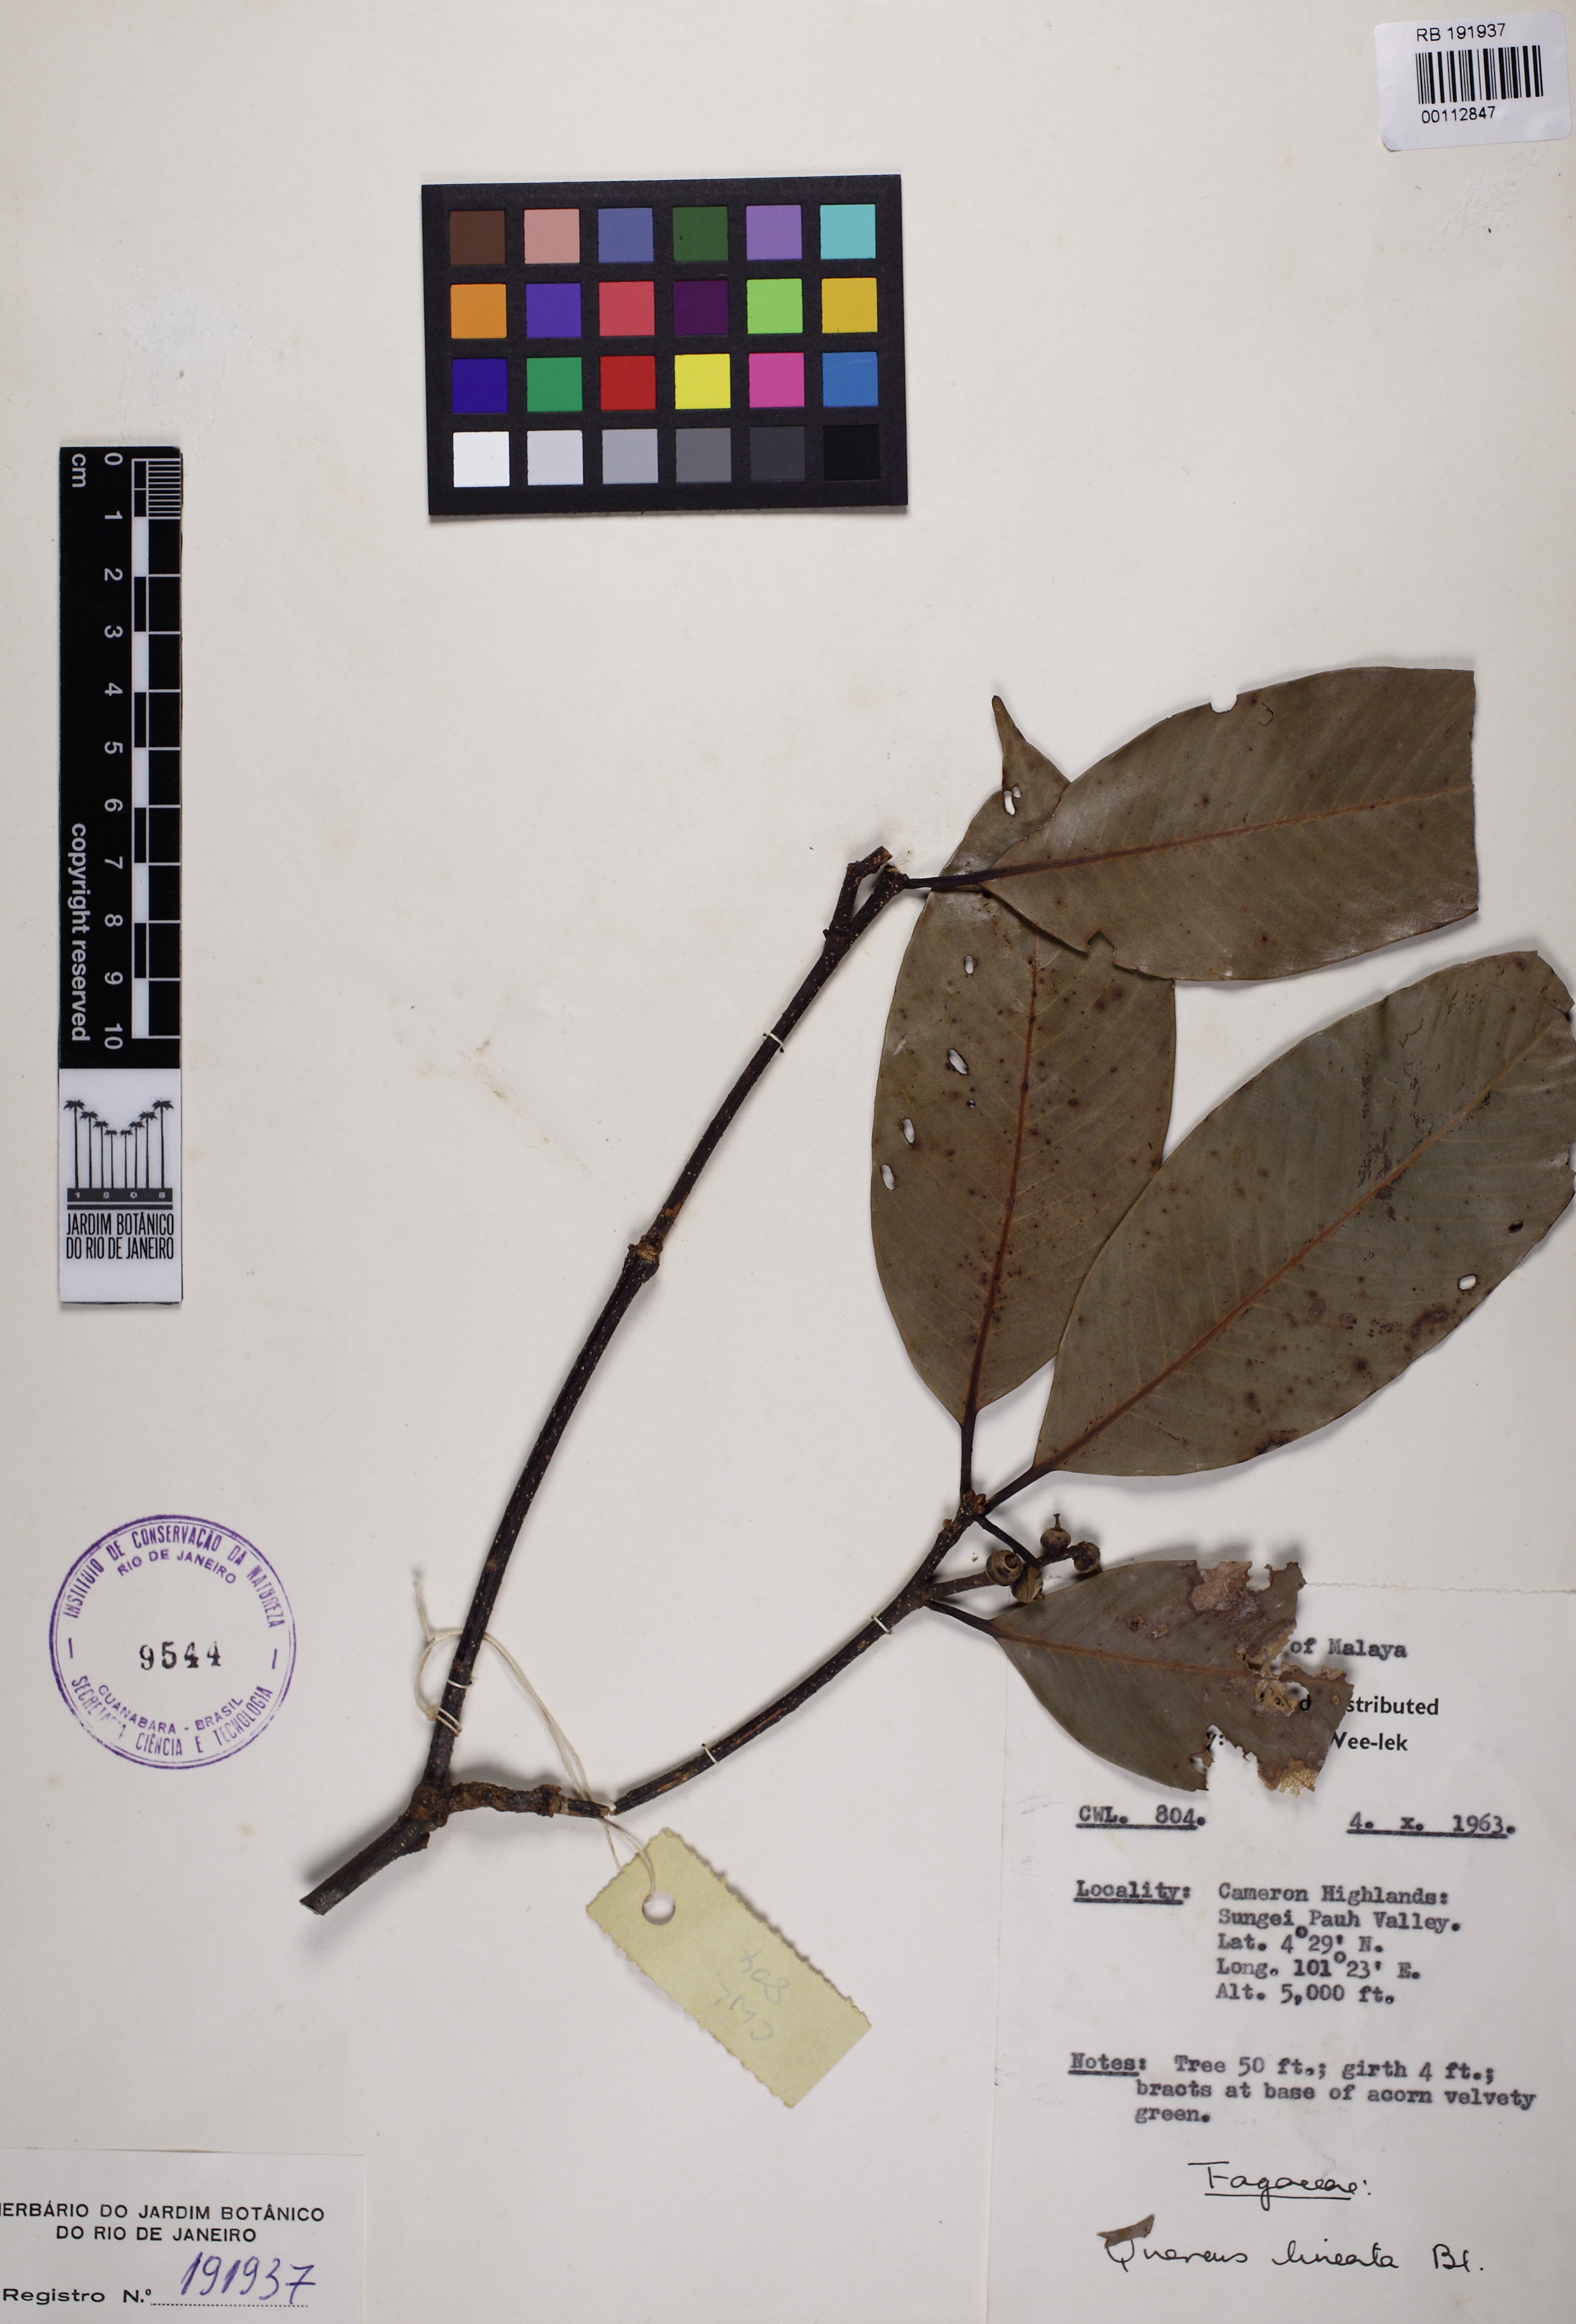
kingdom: Plantae
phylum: Tracheophyta
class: Magnoliopsida
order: Fagales
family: Fagaceae
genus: Quercus
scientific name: Quercus lineata
